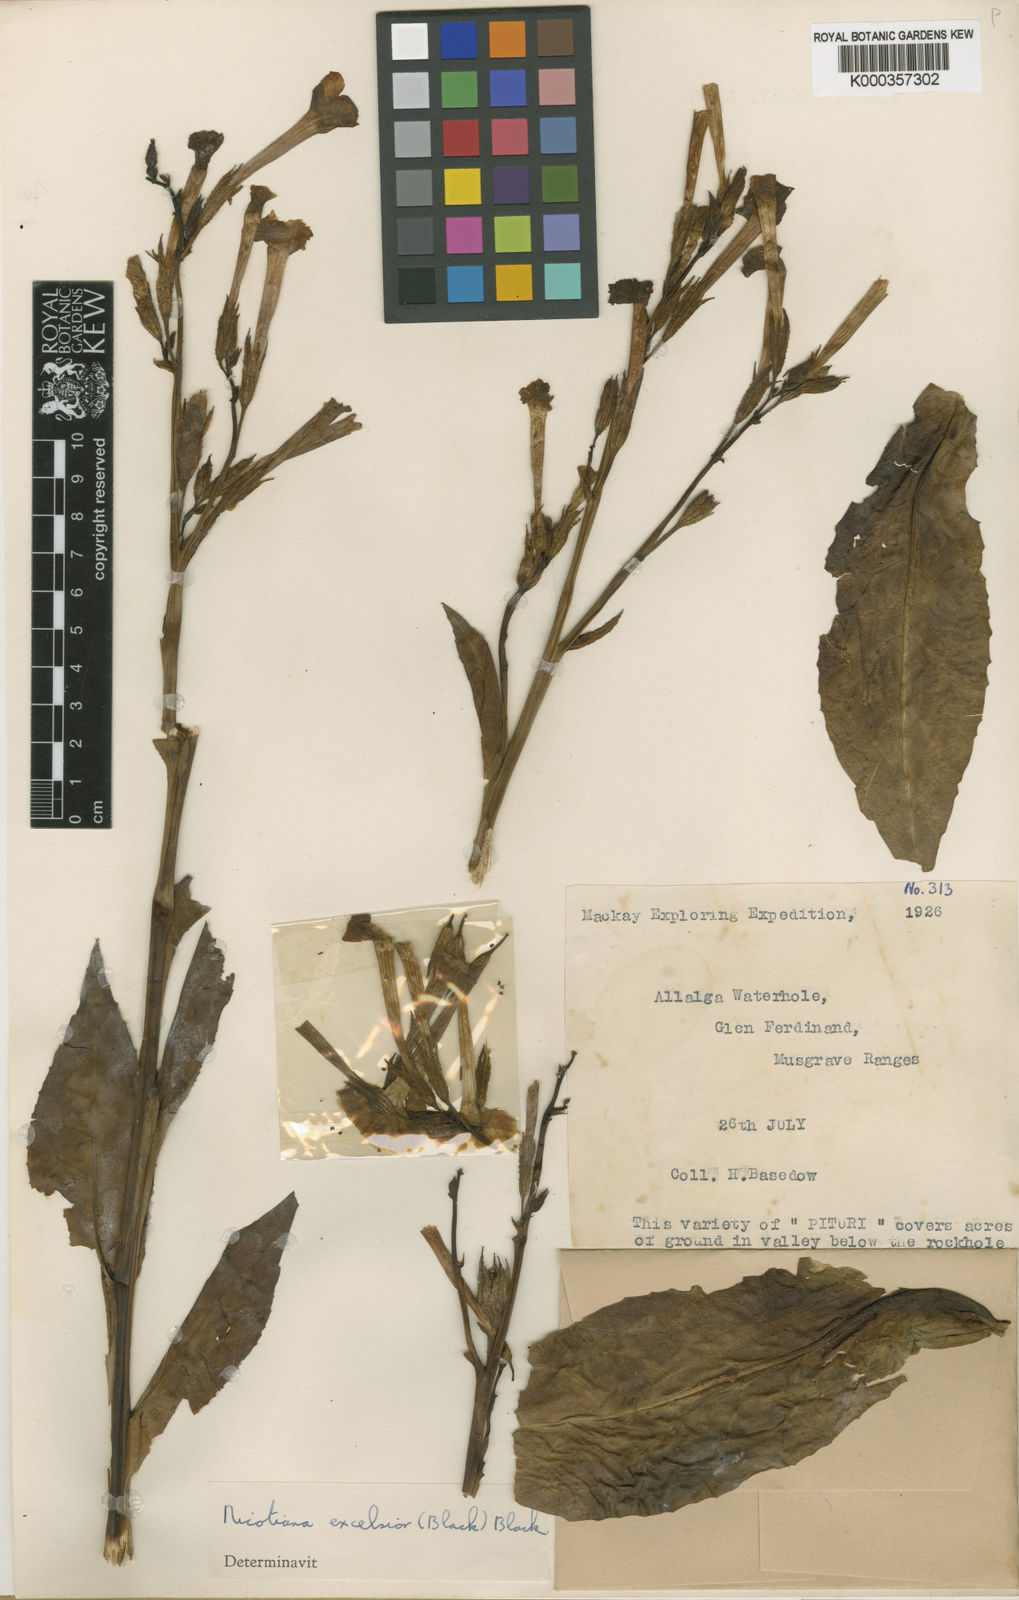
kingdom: Plantae
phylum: Tracheophyta
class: Magnoliopsida
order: Solanales
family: Solanaceae
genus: Nicotiana
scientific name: Nicotiana excelsior
